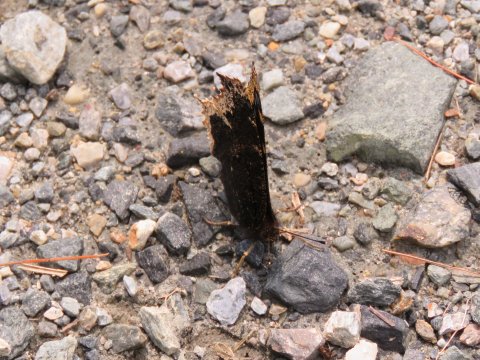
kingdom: Animalia
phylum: Arthropoda
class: Insecta
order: Lepidoptera
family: Nymphalidae
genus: Nymphalis
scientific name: Nymphalis antiopa
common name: Mourning Cloak
